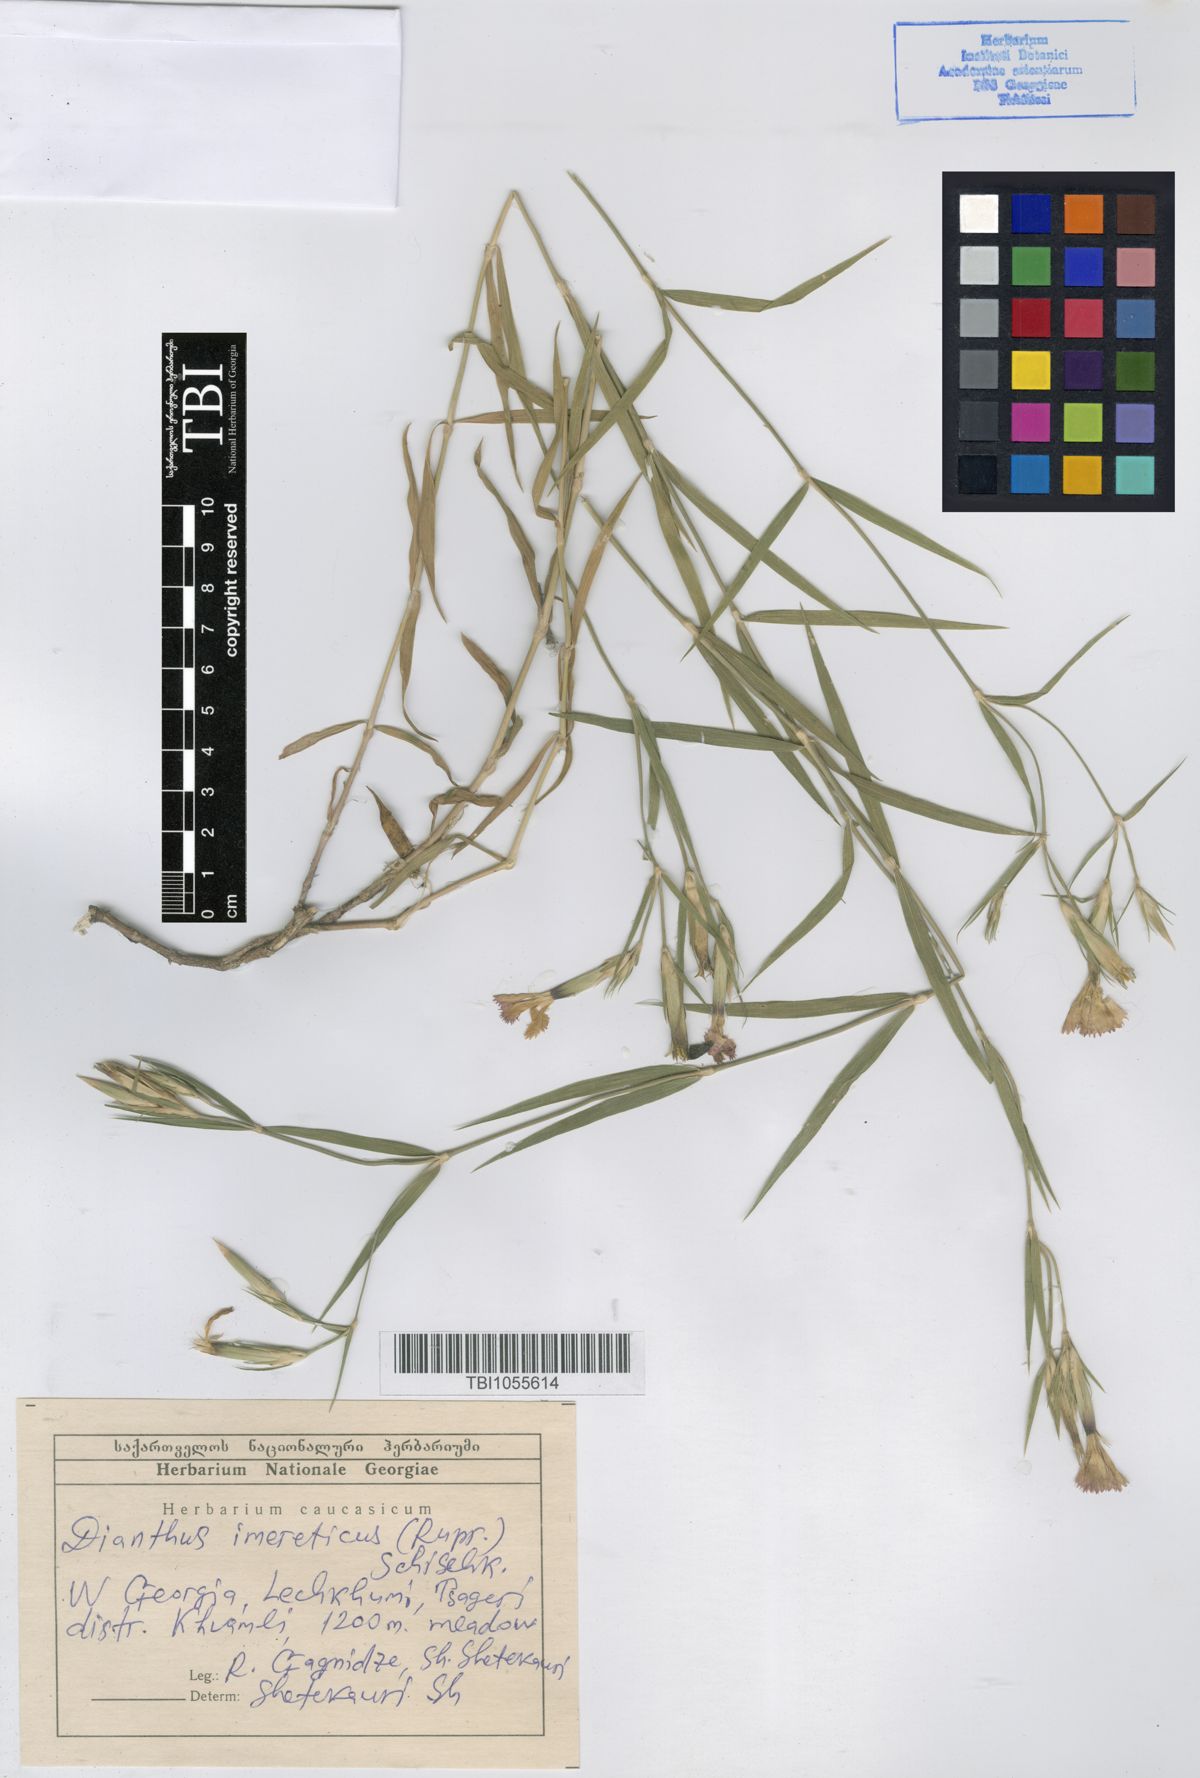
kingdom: Plantae
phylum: Tracheophyta
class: Magnoliopsida
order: Caryophyllales
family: Caryophyllaceae
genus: Dianthus
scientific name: Dianthus imereticus
